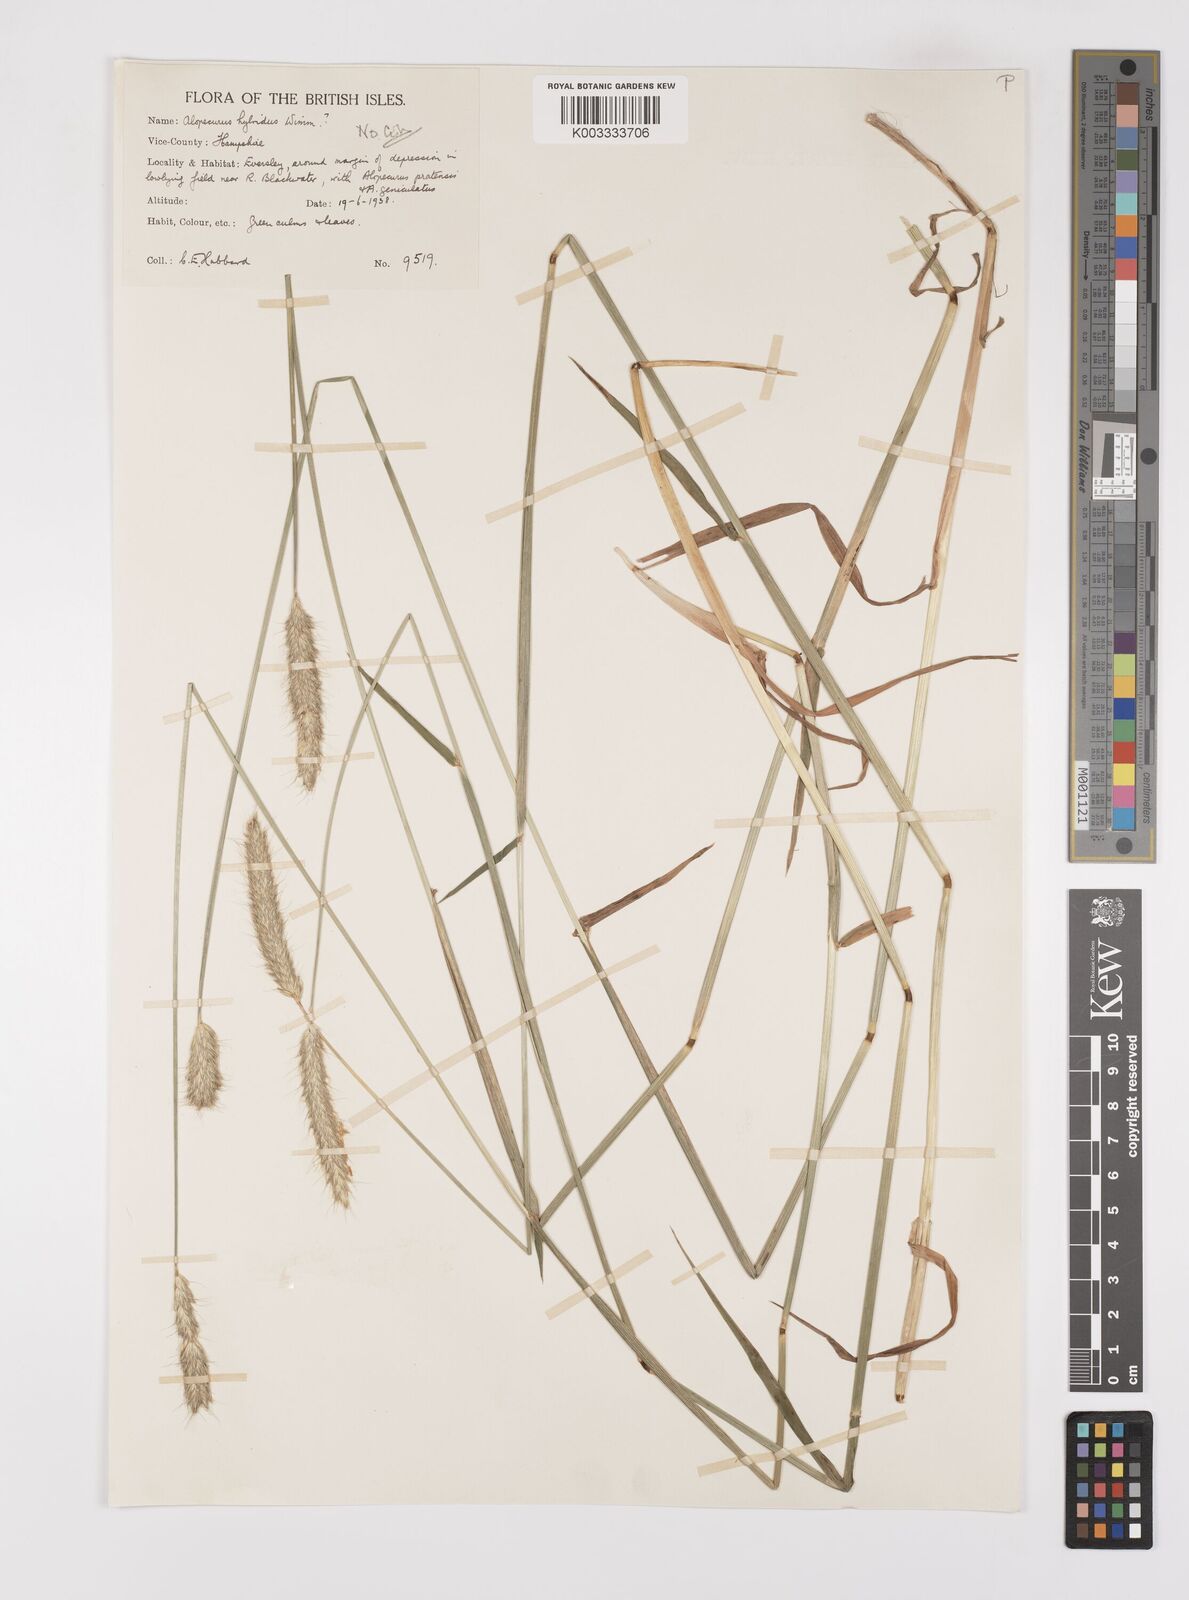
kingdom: Plantae
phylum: Tracheophyta
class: Liliopsida
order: Poales
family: Poaceae
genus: Alopecurus
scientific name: Alopecurus pratensis
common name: Meadow foxtail
